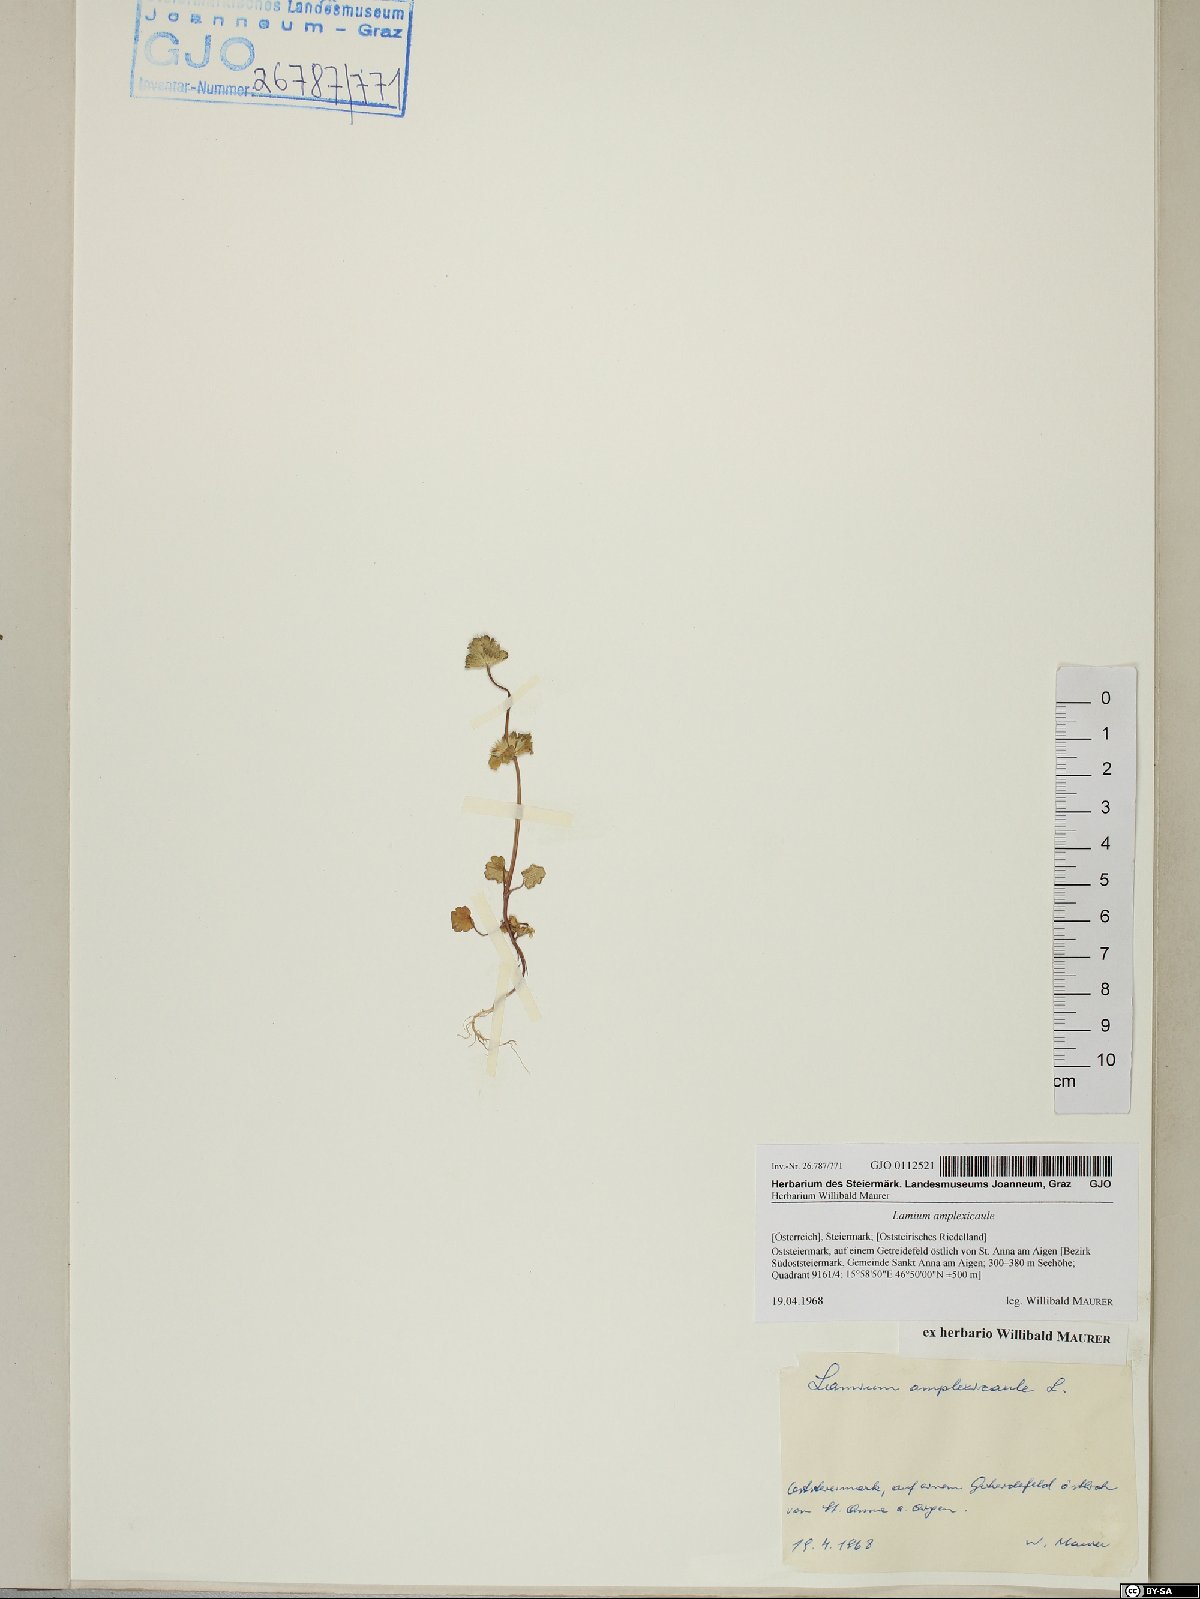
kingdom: Plantae
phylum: Tracheophyta
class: Magnoliopsida
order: Lamiales
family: Lamiaceae
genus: Lamium
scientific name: Lamium amplexicaule
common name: Henbit dead-nettle
